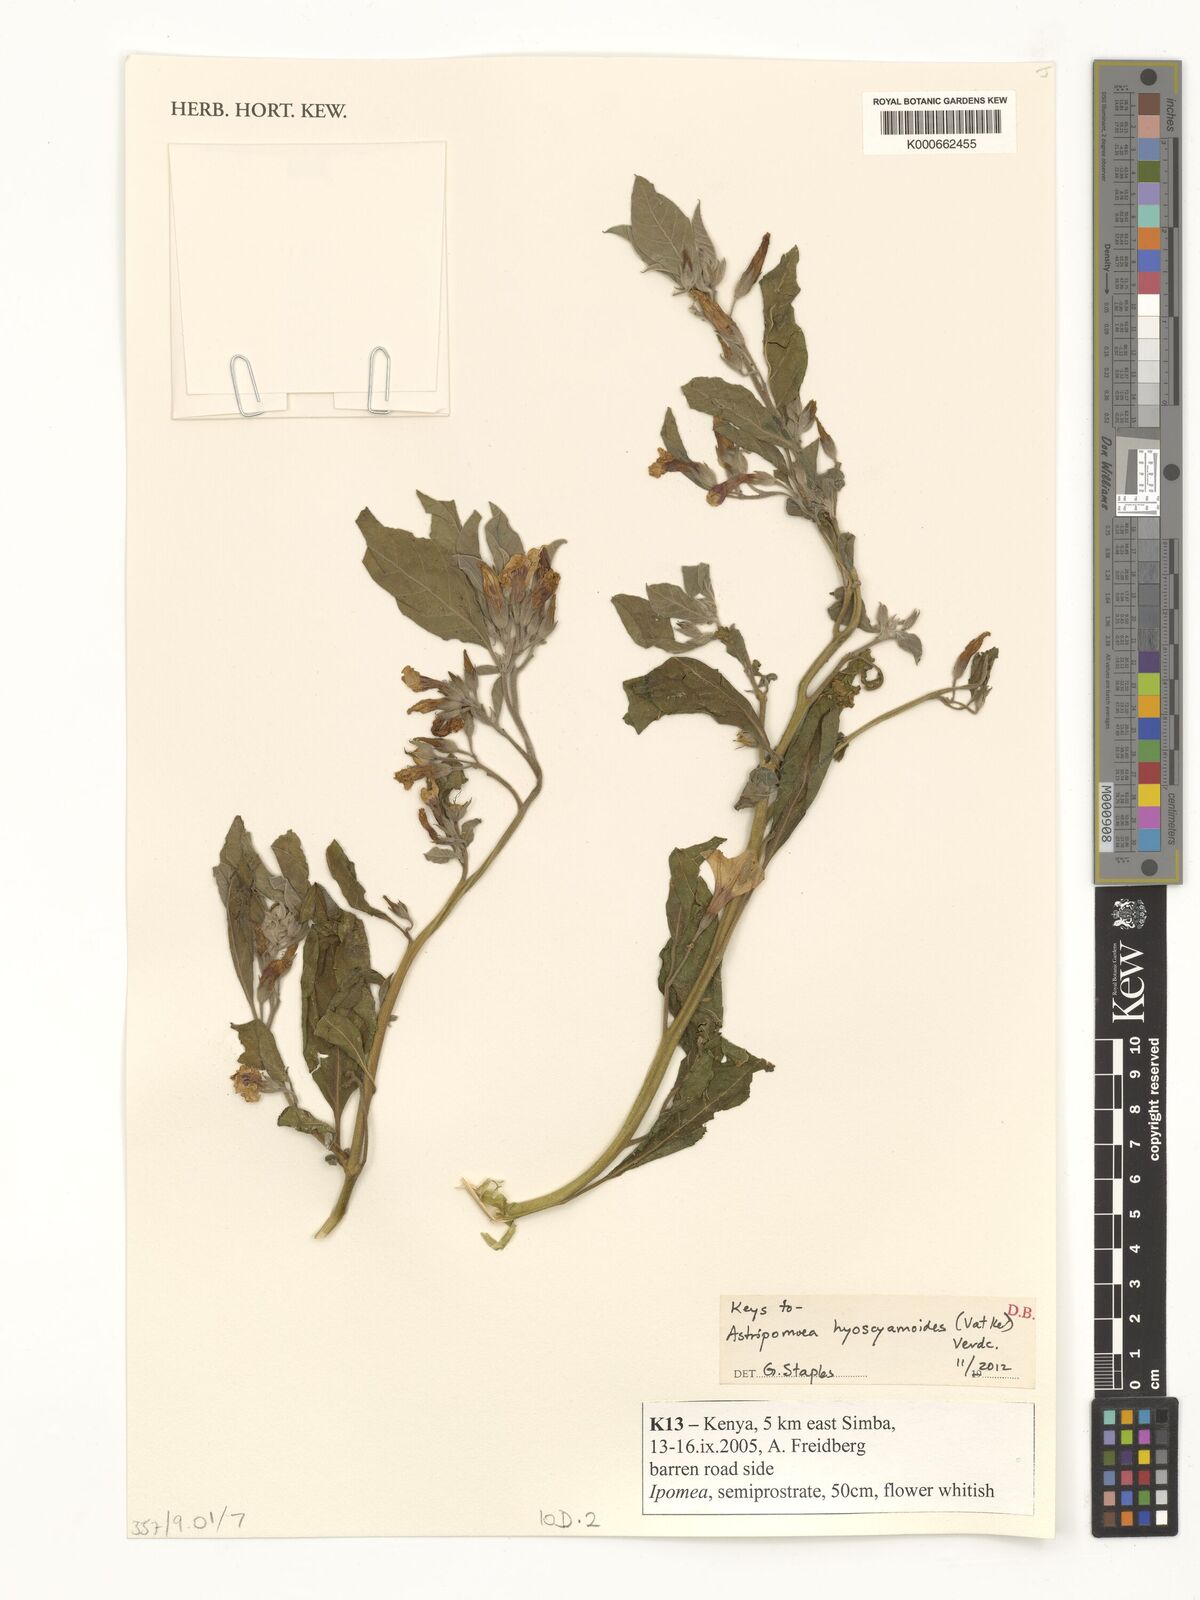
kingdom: Plantae
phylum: Tracheophyta
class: Magnoliopsida
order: Solanales
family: Convolvulaceae
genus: Astripomoea
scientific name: Astripomoea hyoscyamoides
